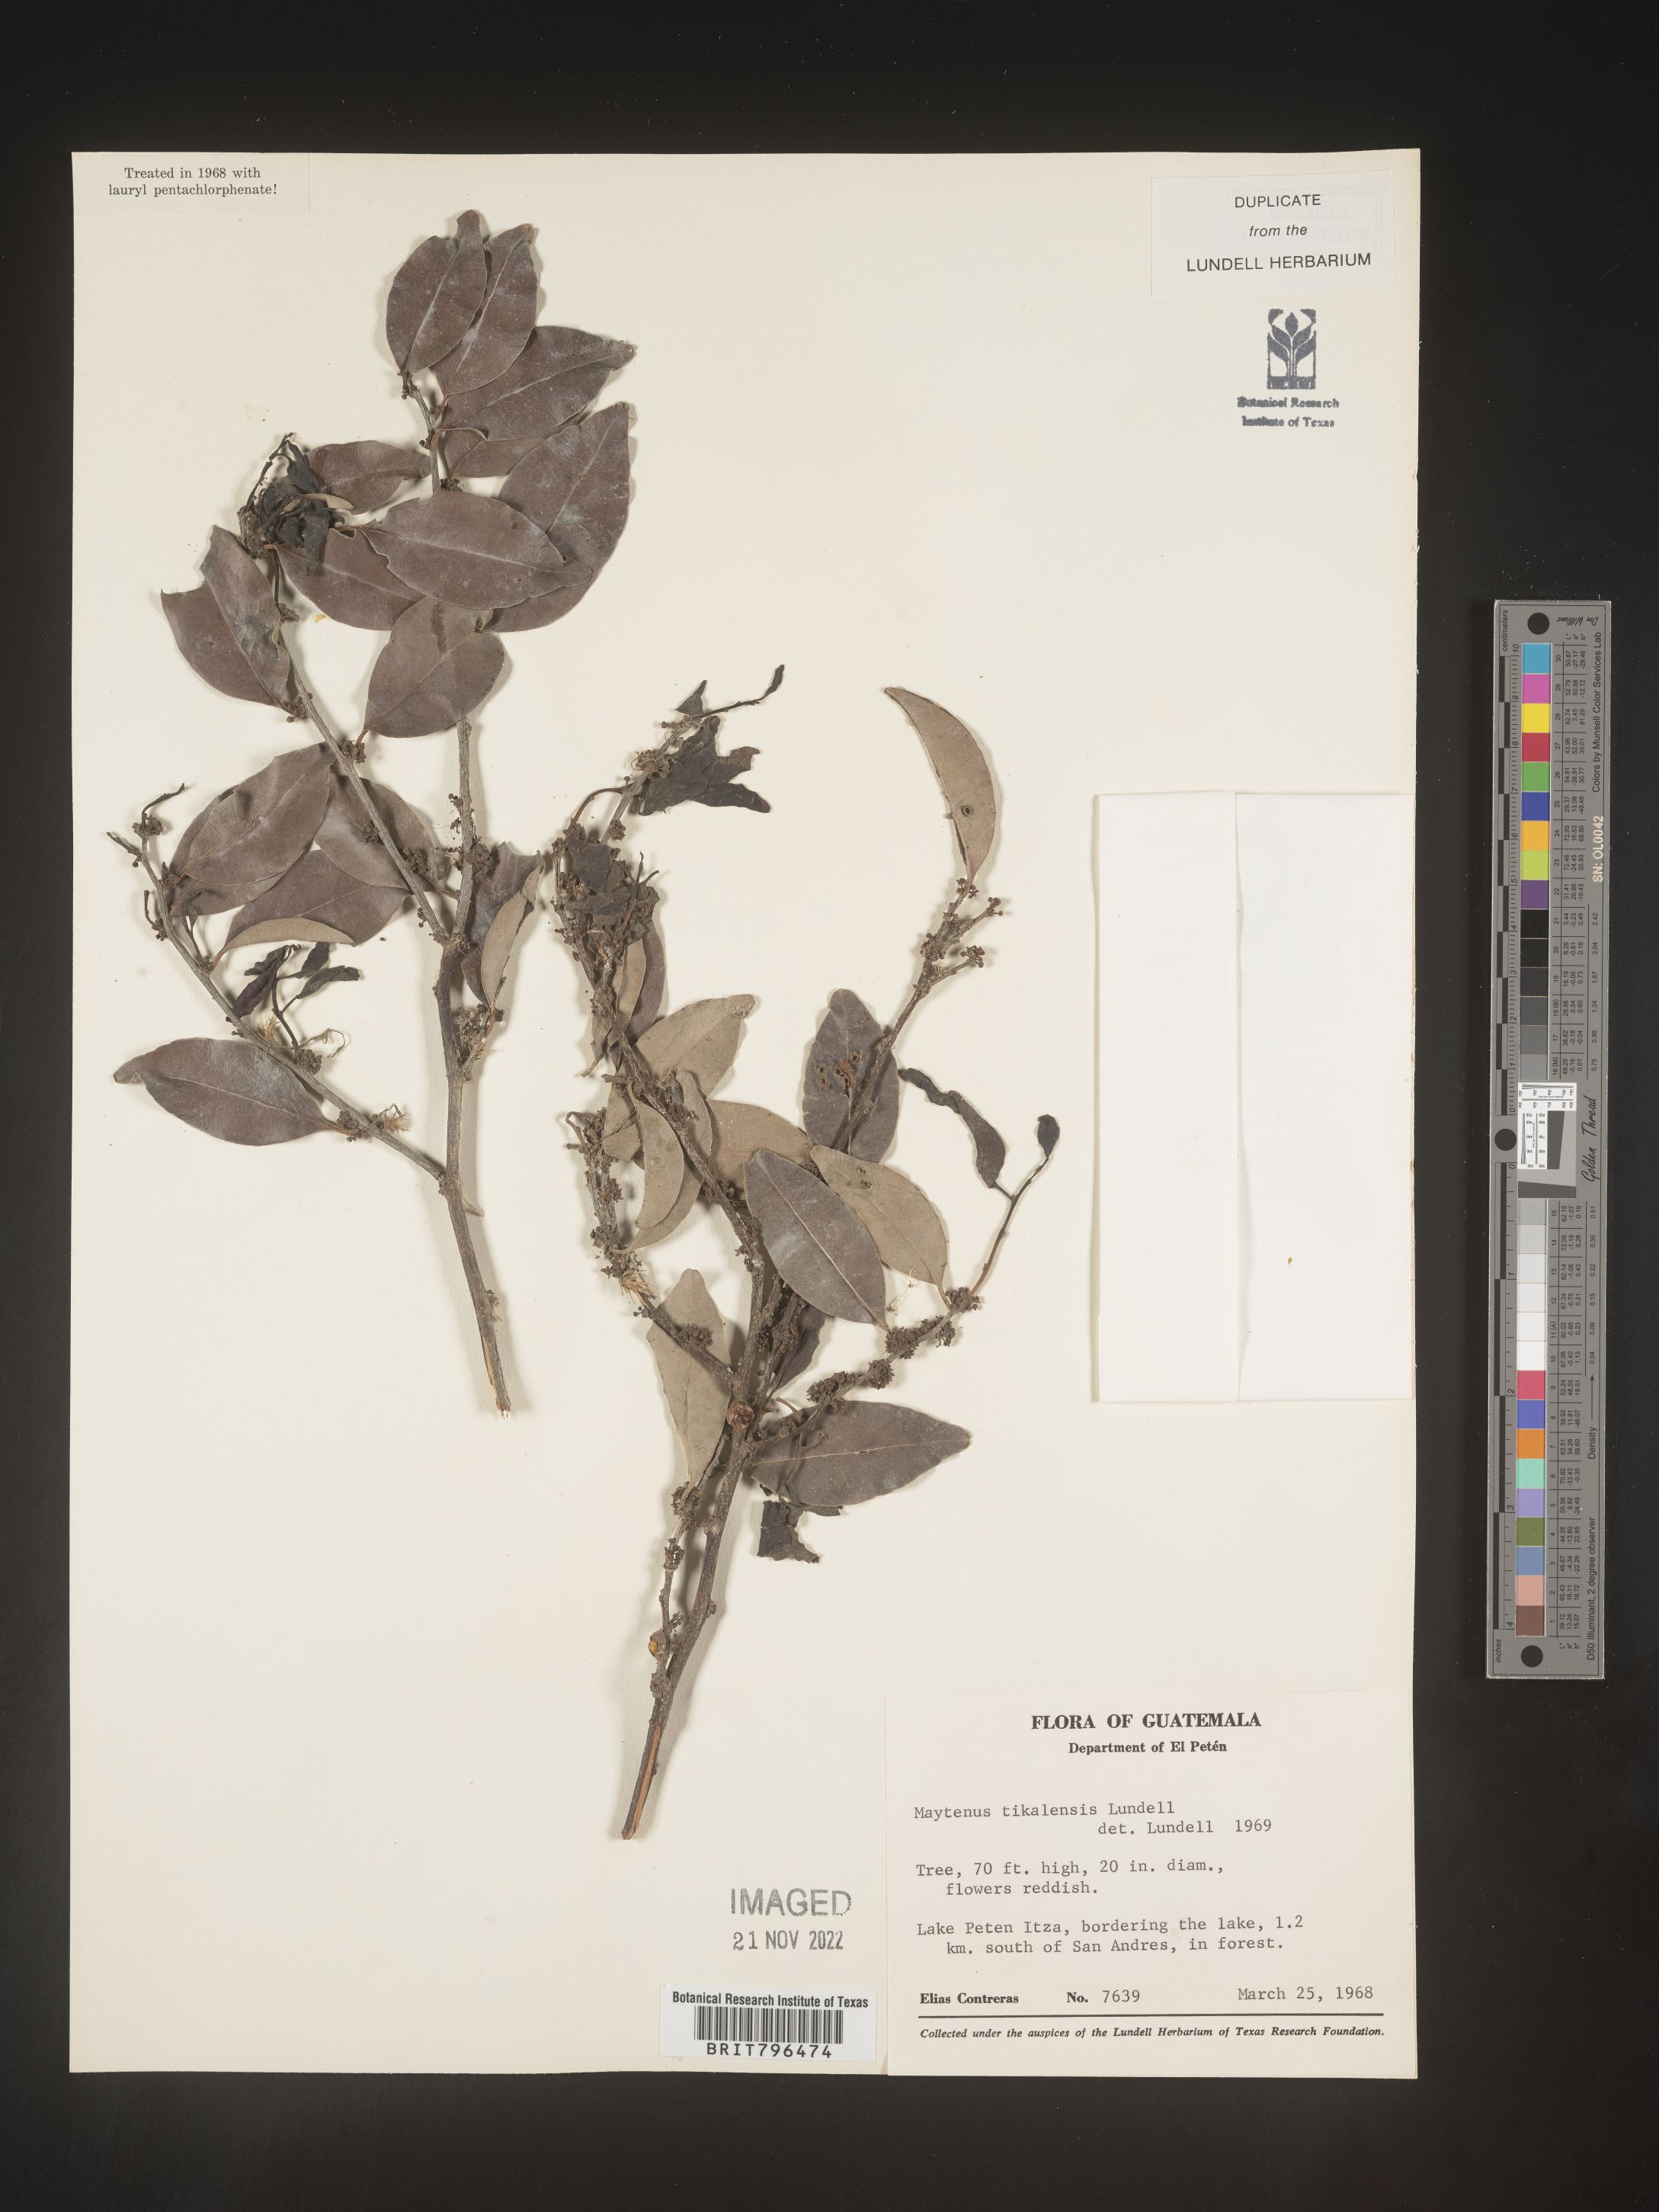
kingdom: Plantae
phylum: Tracheophyta
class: Magnoliopsida
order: Celastrales
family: Celastraceae
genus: Maytenus
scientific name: Maytenus
